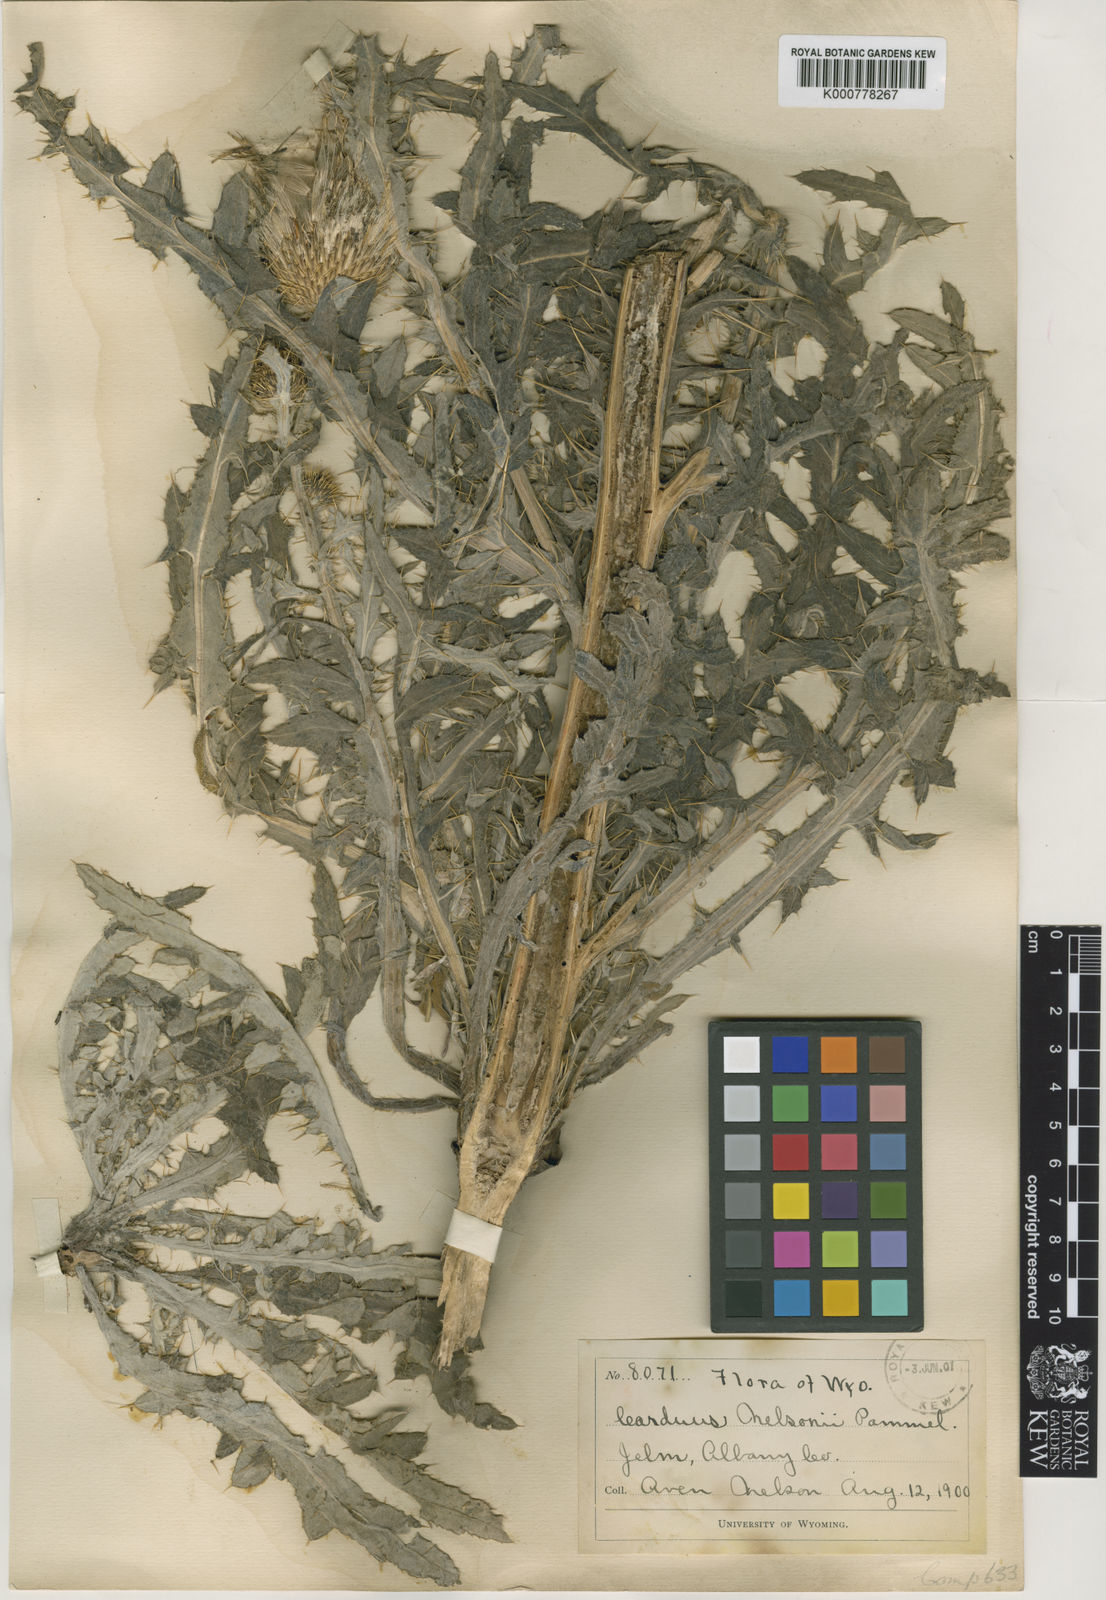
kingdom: Plantae
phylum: Tracheophyta
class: Magnoliopsida
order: Asterales
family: Asteraceae
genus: Cirsium
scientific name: Cirsium
